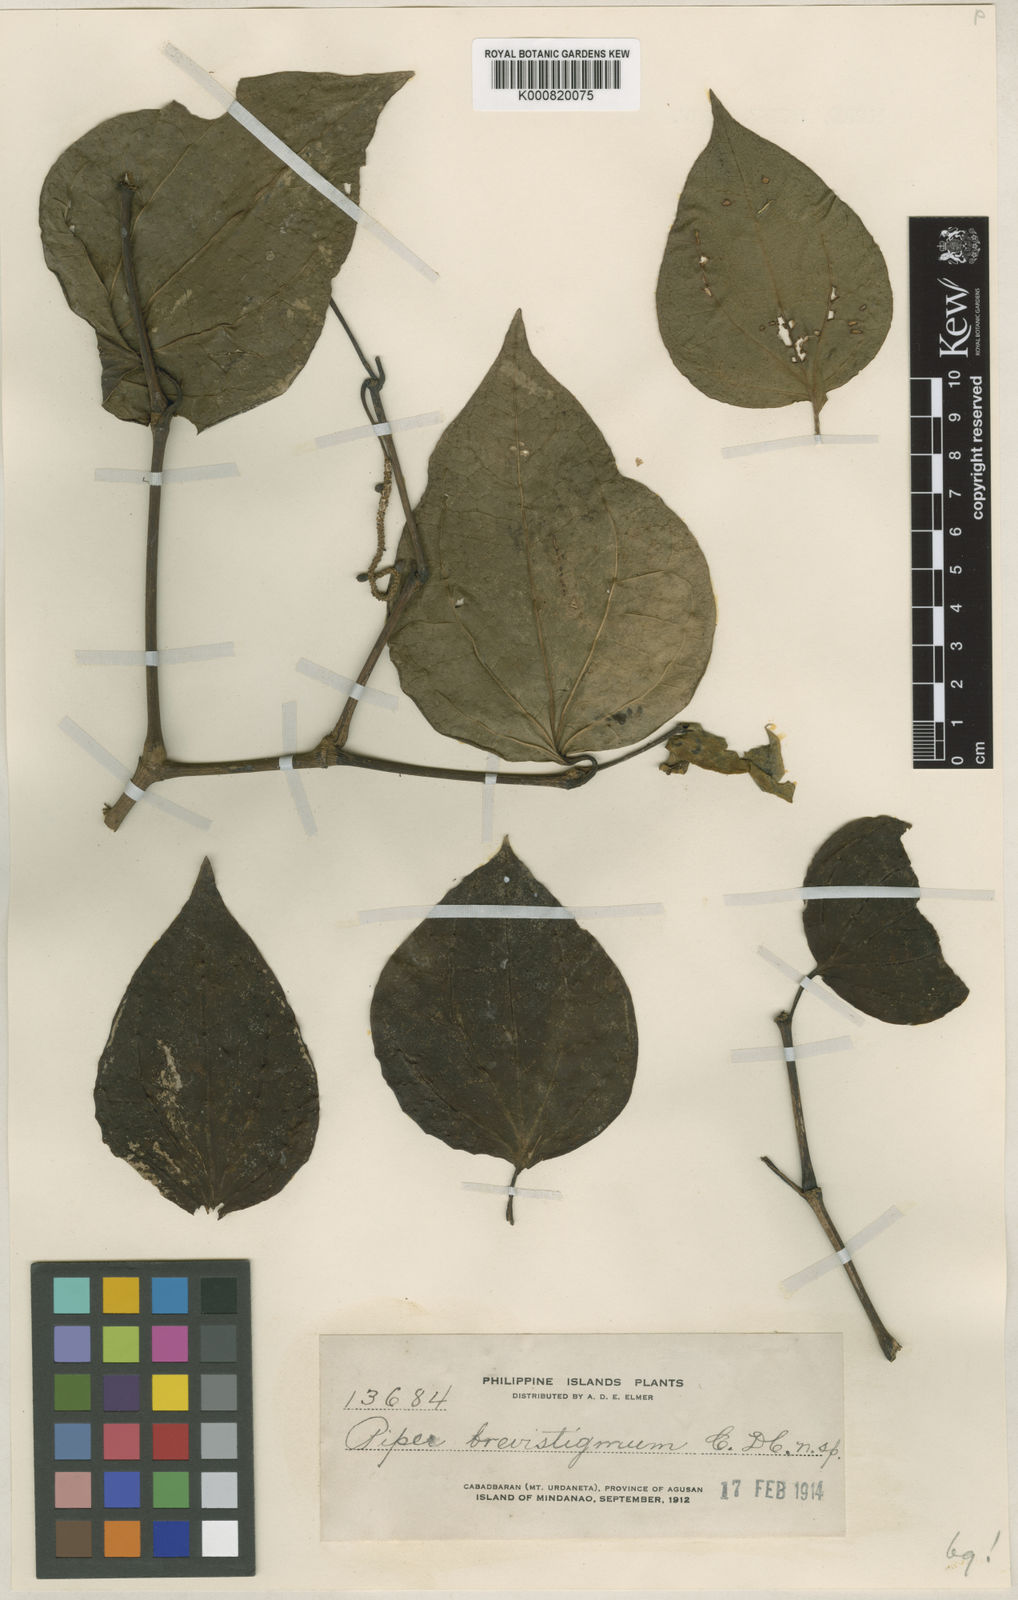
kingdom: Plantae
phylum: Tracheophyta
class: Magnoliopsida
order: Piperales
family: Piperaceae
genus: Piper
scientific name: Piper brevistigmum
